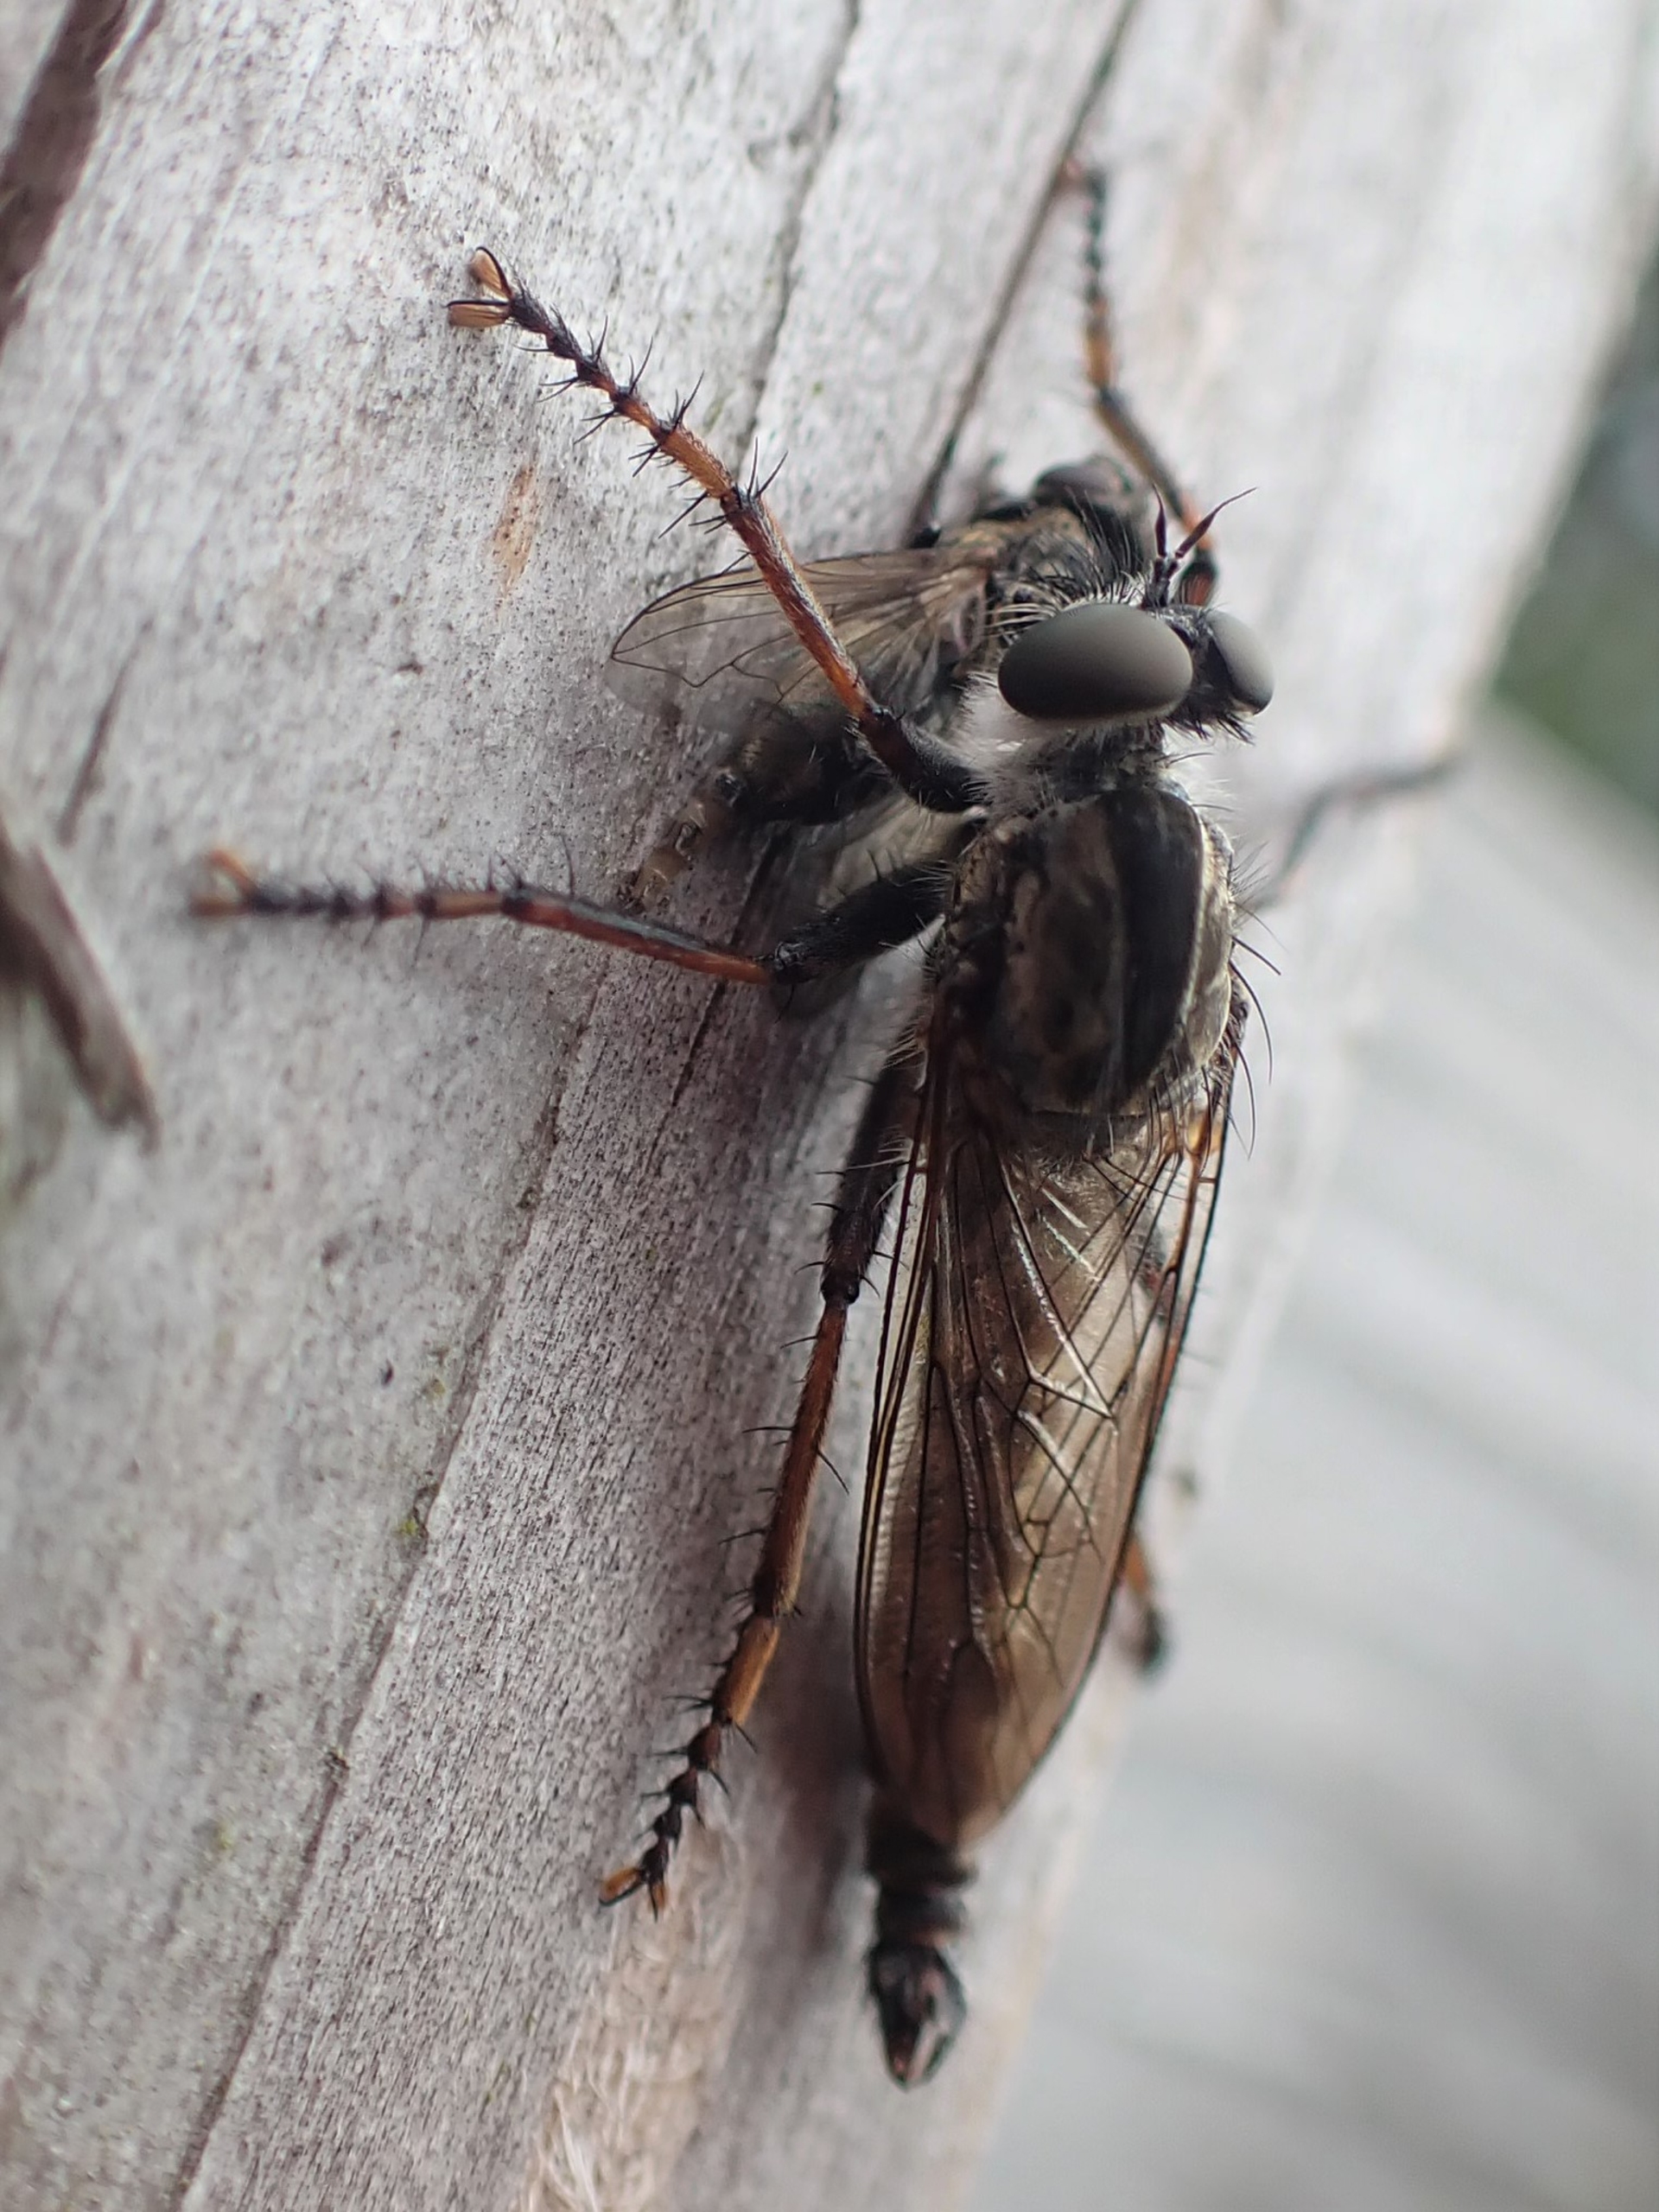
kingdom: Animalia
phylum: Arthropoda
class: Insecta
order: Diptera
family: Asilidae
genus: Machimus
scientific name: Machimus atricapillus
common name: Sort hårrovflue
